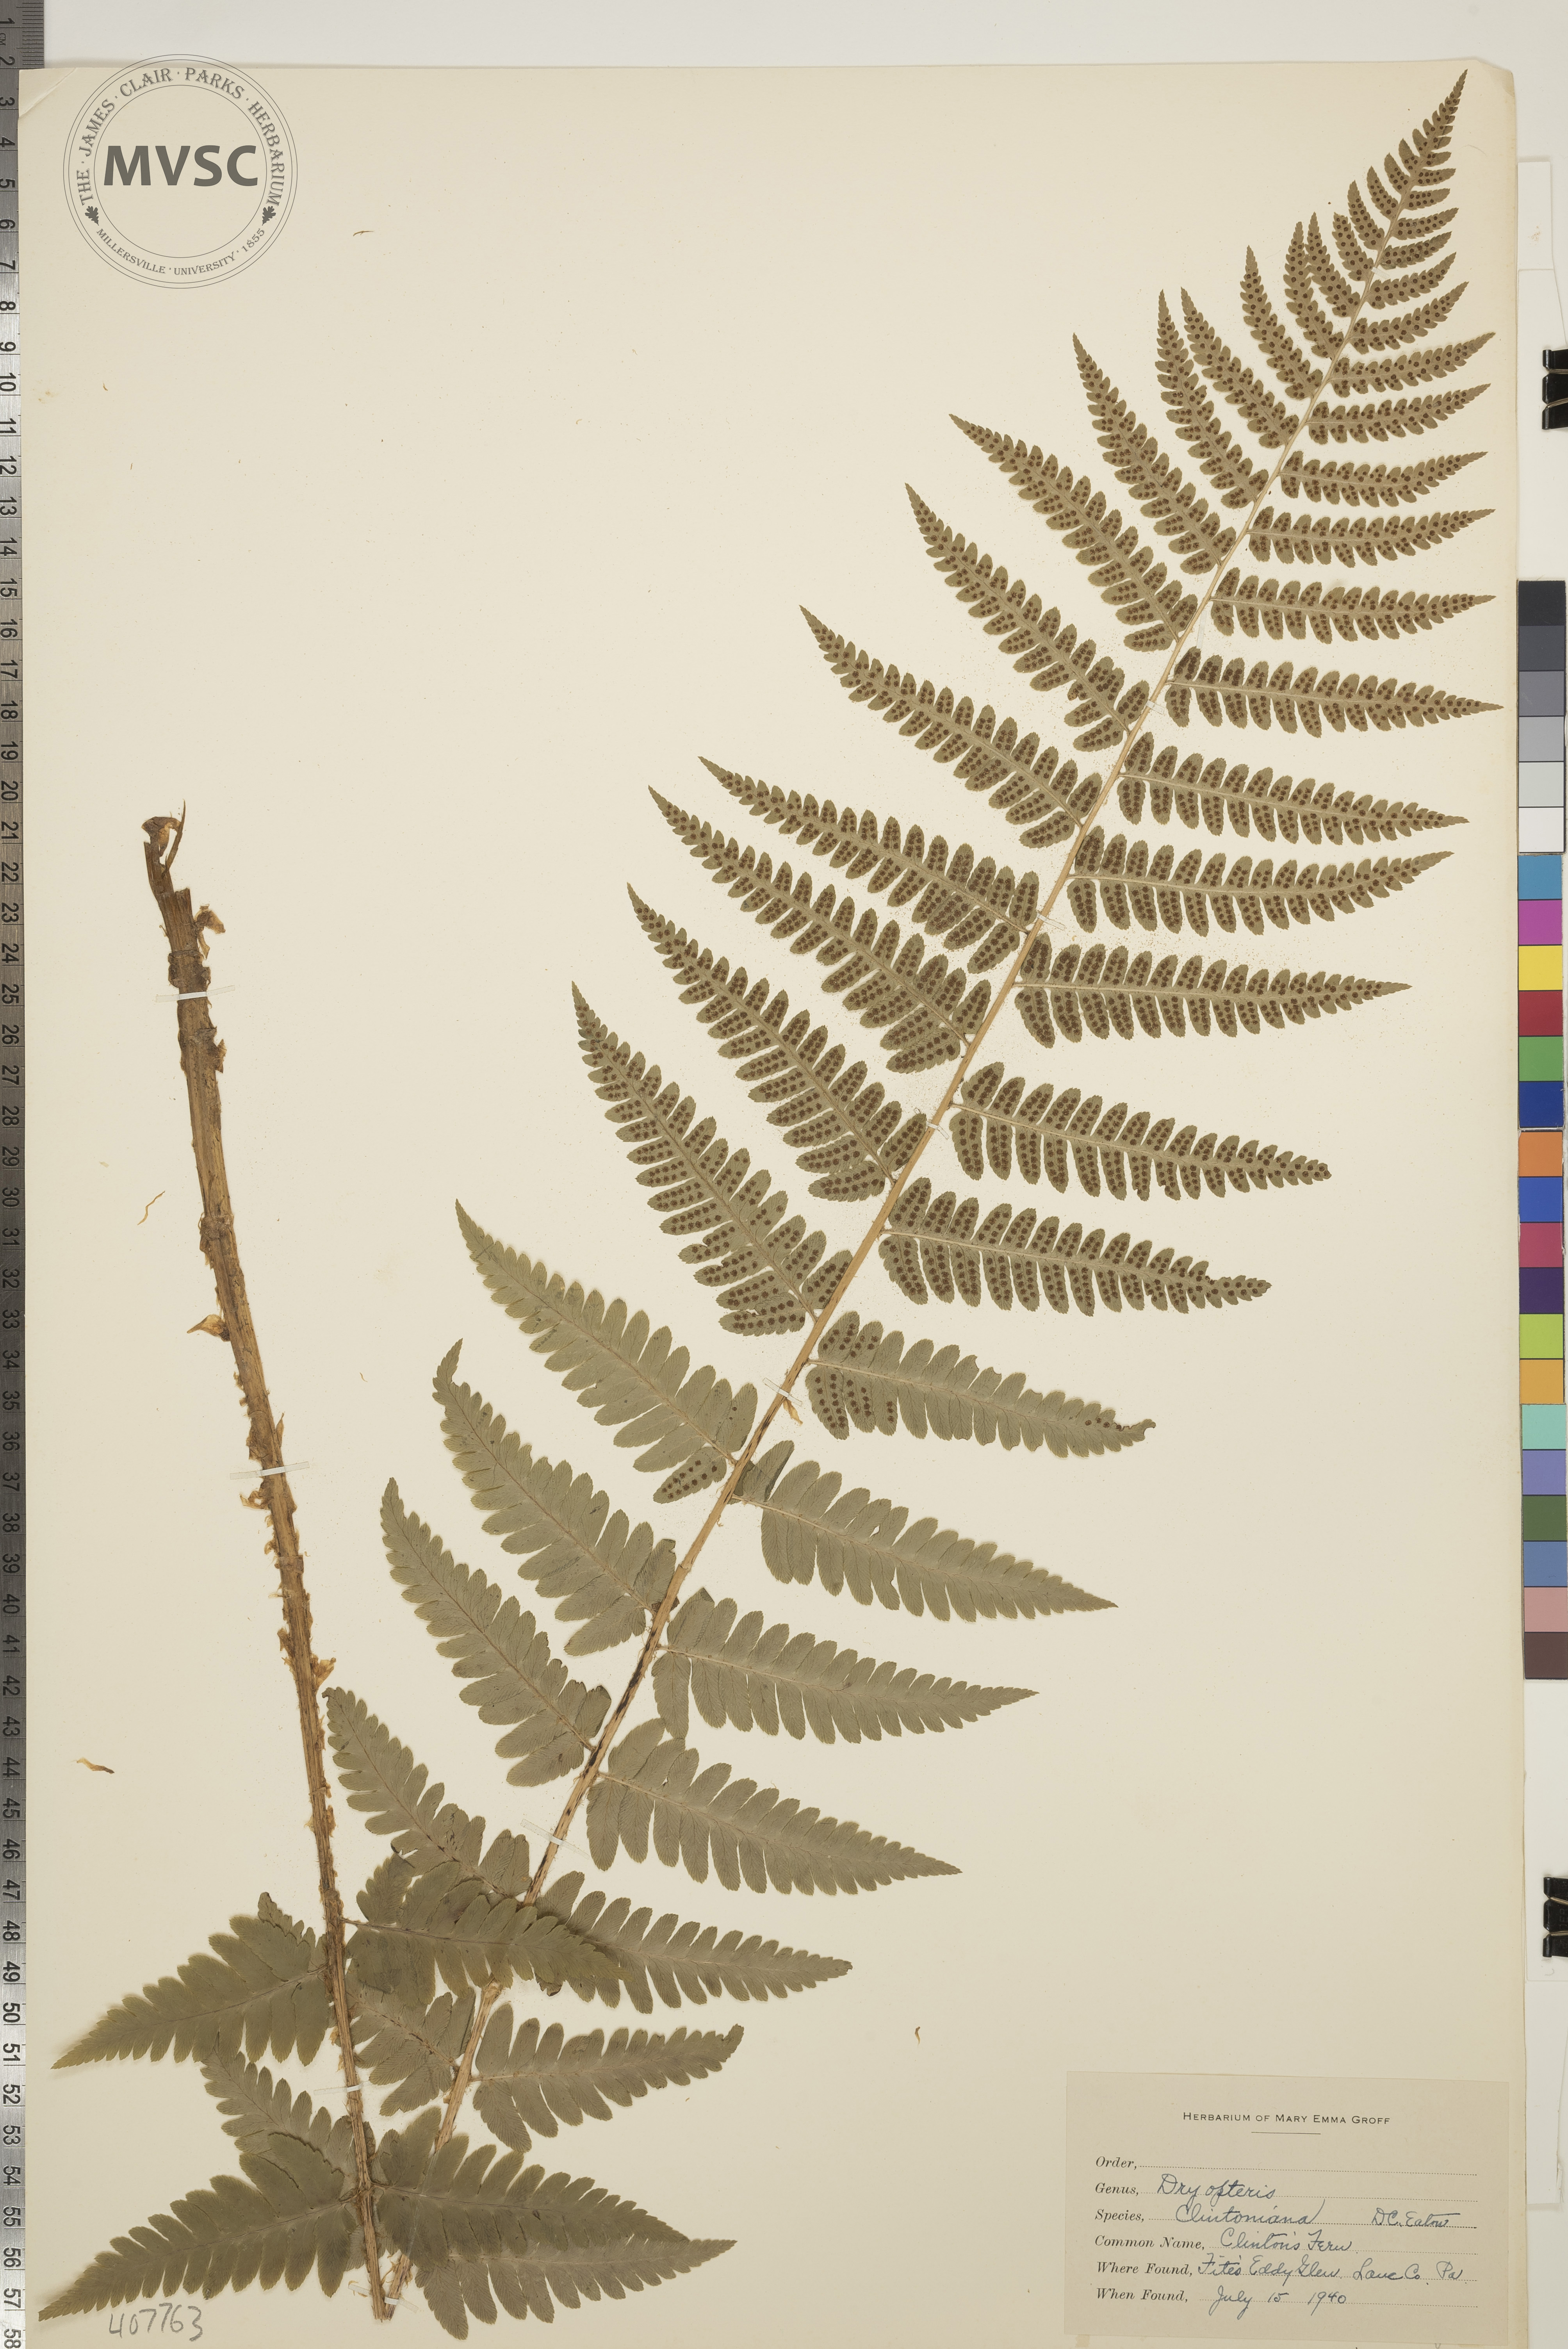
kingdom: Plantae
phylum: Tracheophyta
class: Polypodiopsida
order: Polypodiales
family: Dryopteridaceae
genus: Dryopteris
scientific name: Dryopteris clintoniana
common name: Clinton's Fern
